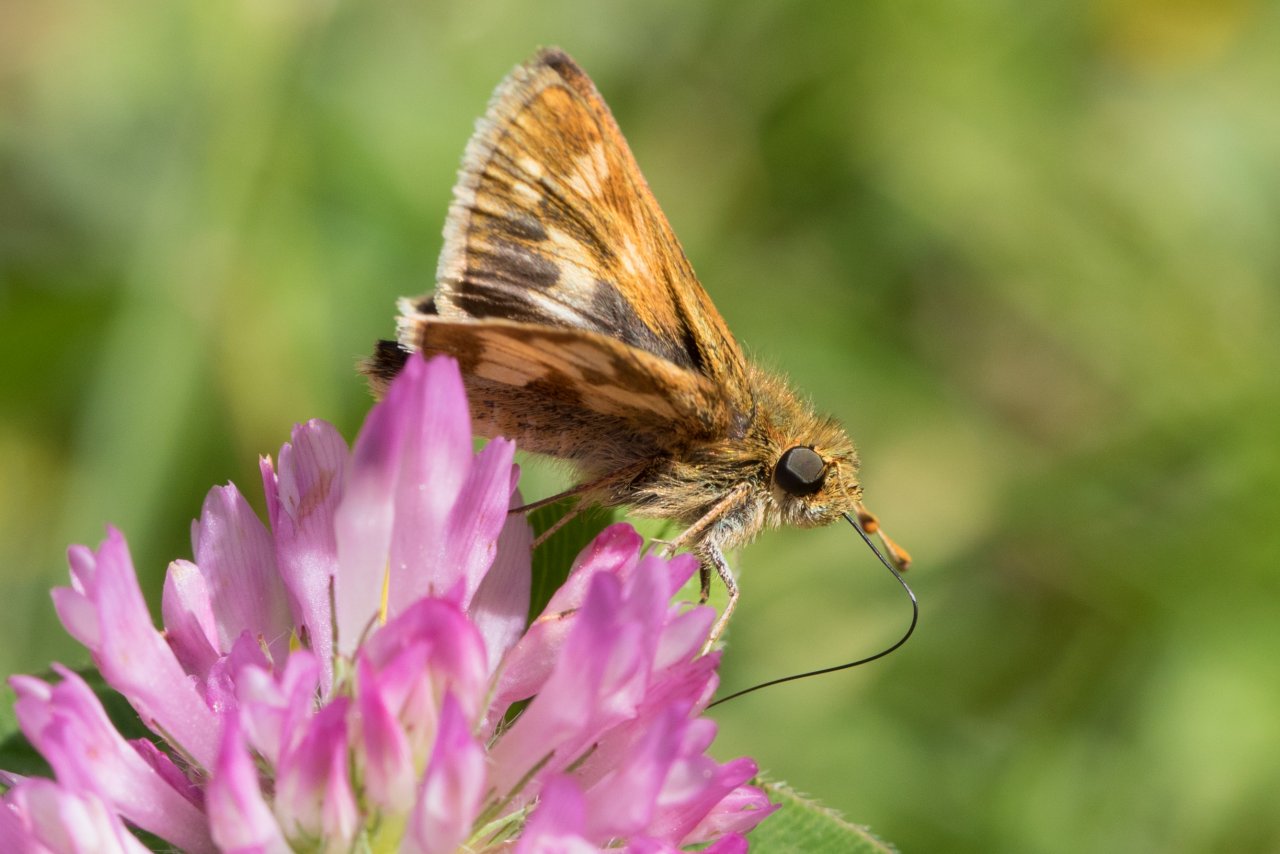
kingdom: Animalia
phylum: Arthropoda
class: Insecta
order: Lepidoptera
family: Hesperiidae
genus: Polites
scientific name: Polites coras
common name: Peck's Skipper
